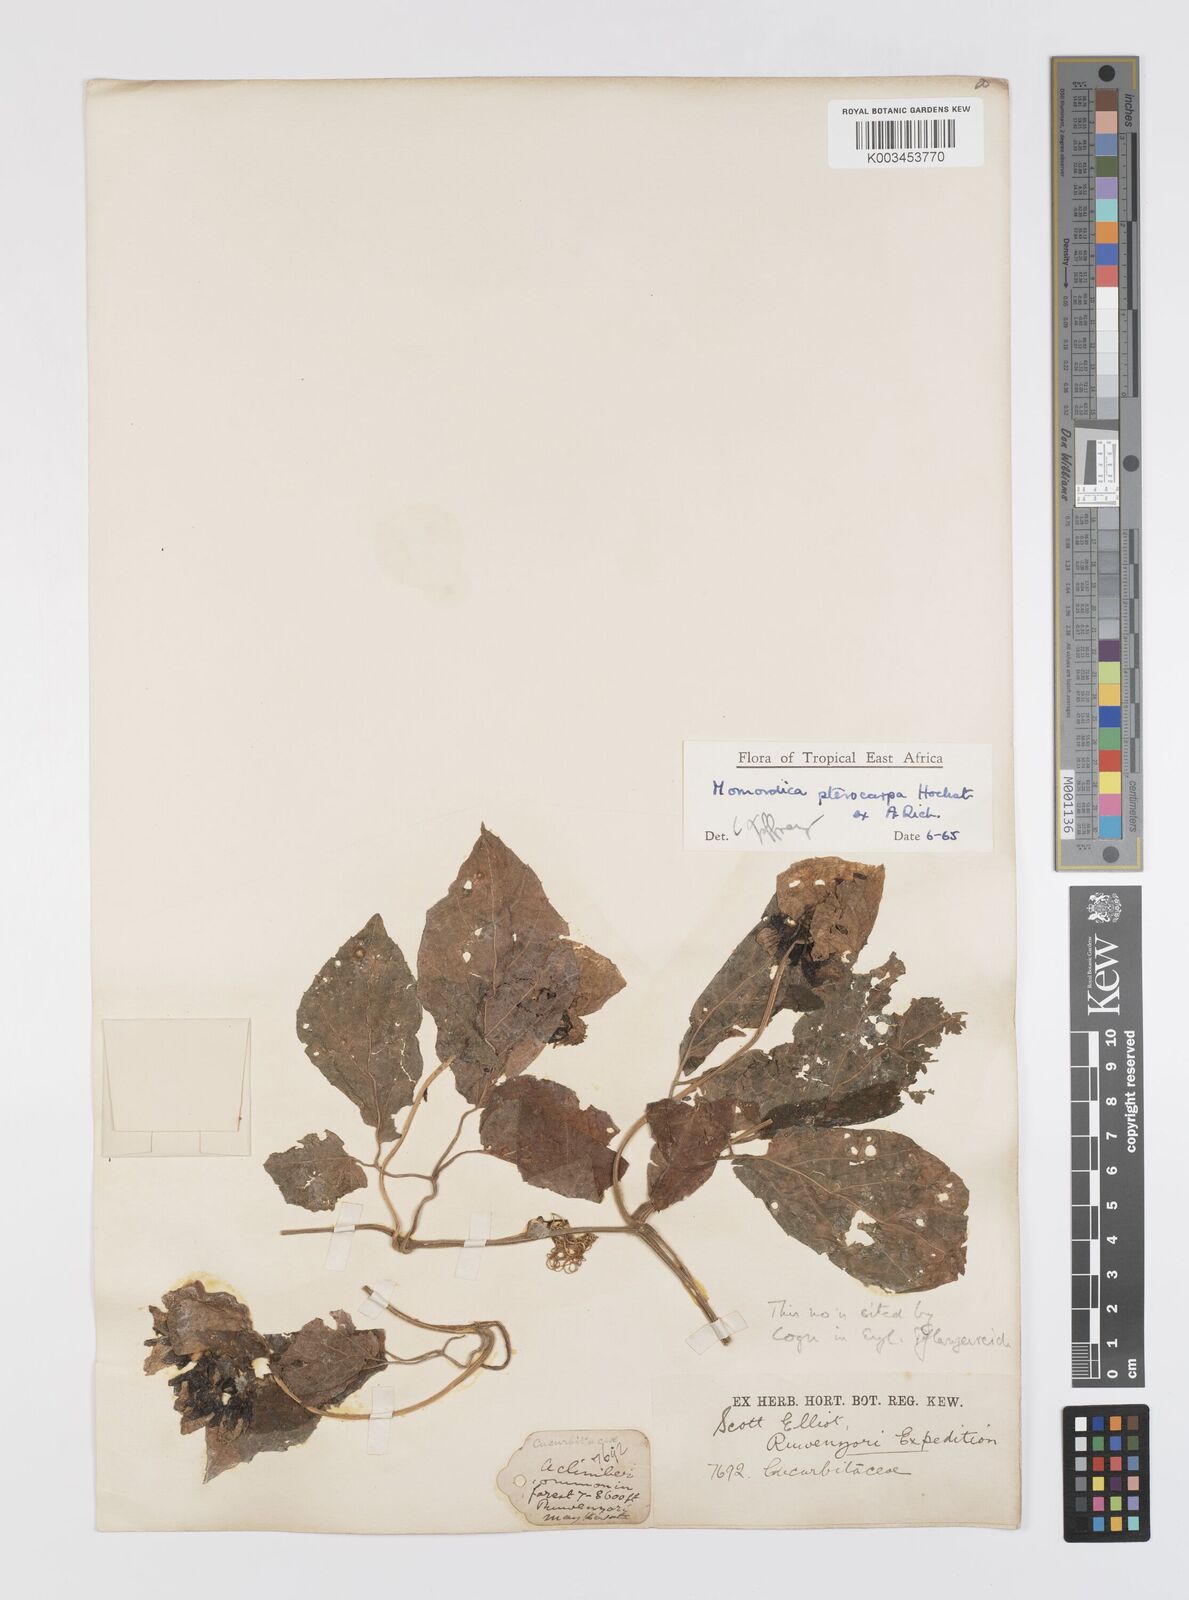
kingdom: Plantae
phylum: Tracheophyta
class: Magnoliopsida
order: Cucurbitales
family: Cucurbitaceae
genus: Momordica
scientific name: Momordica pterocarpa
